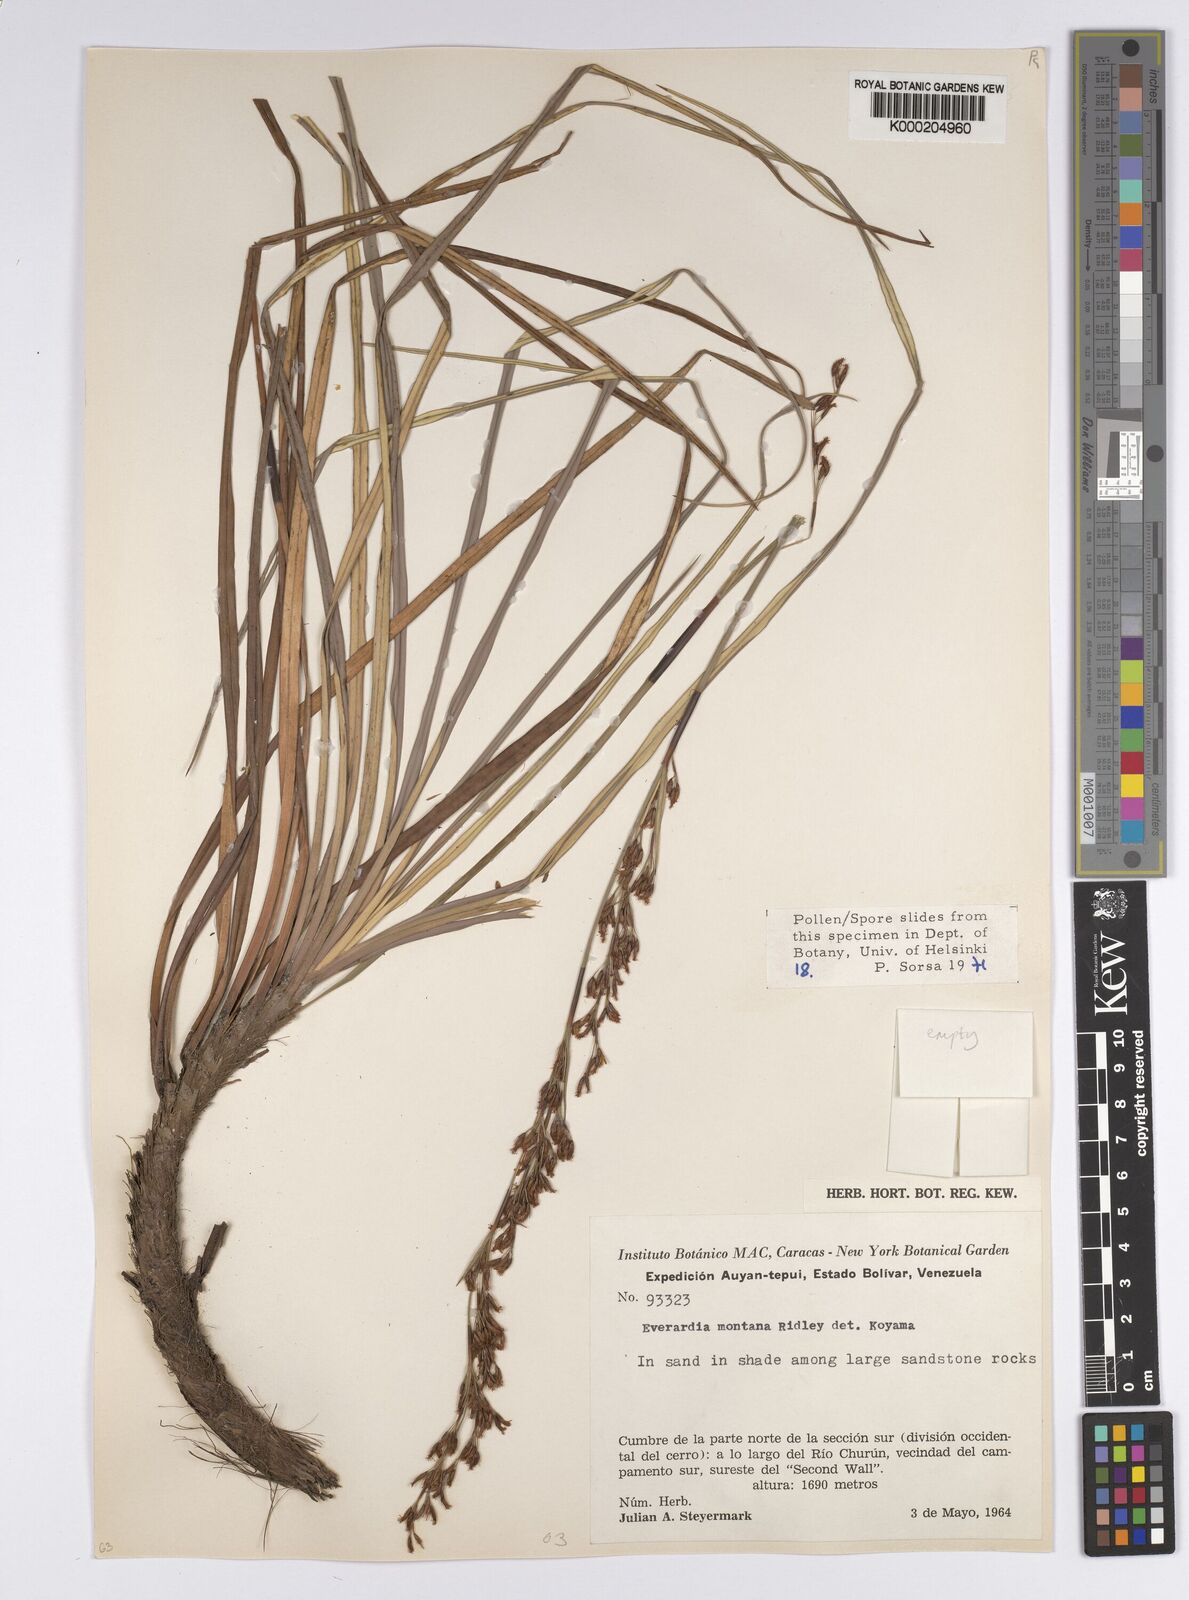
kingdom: Plantae
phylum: Tracheophyta
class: Liliopsida
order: Poales
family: Cyperaceae
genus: Cephalocarpus
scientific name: Cephalocarpus montanus
